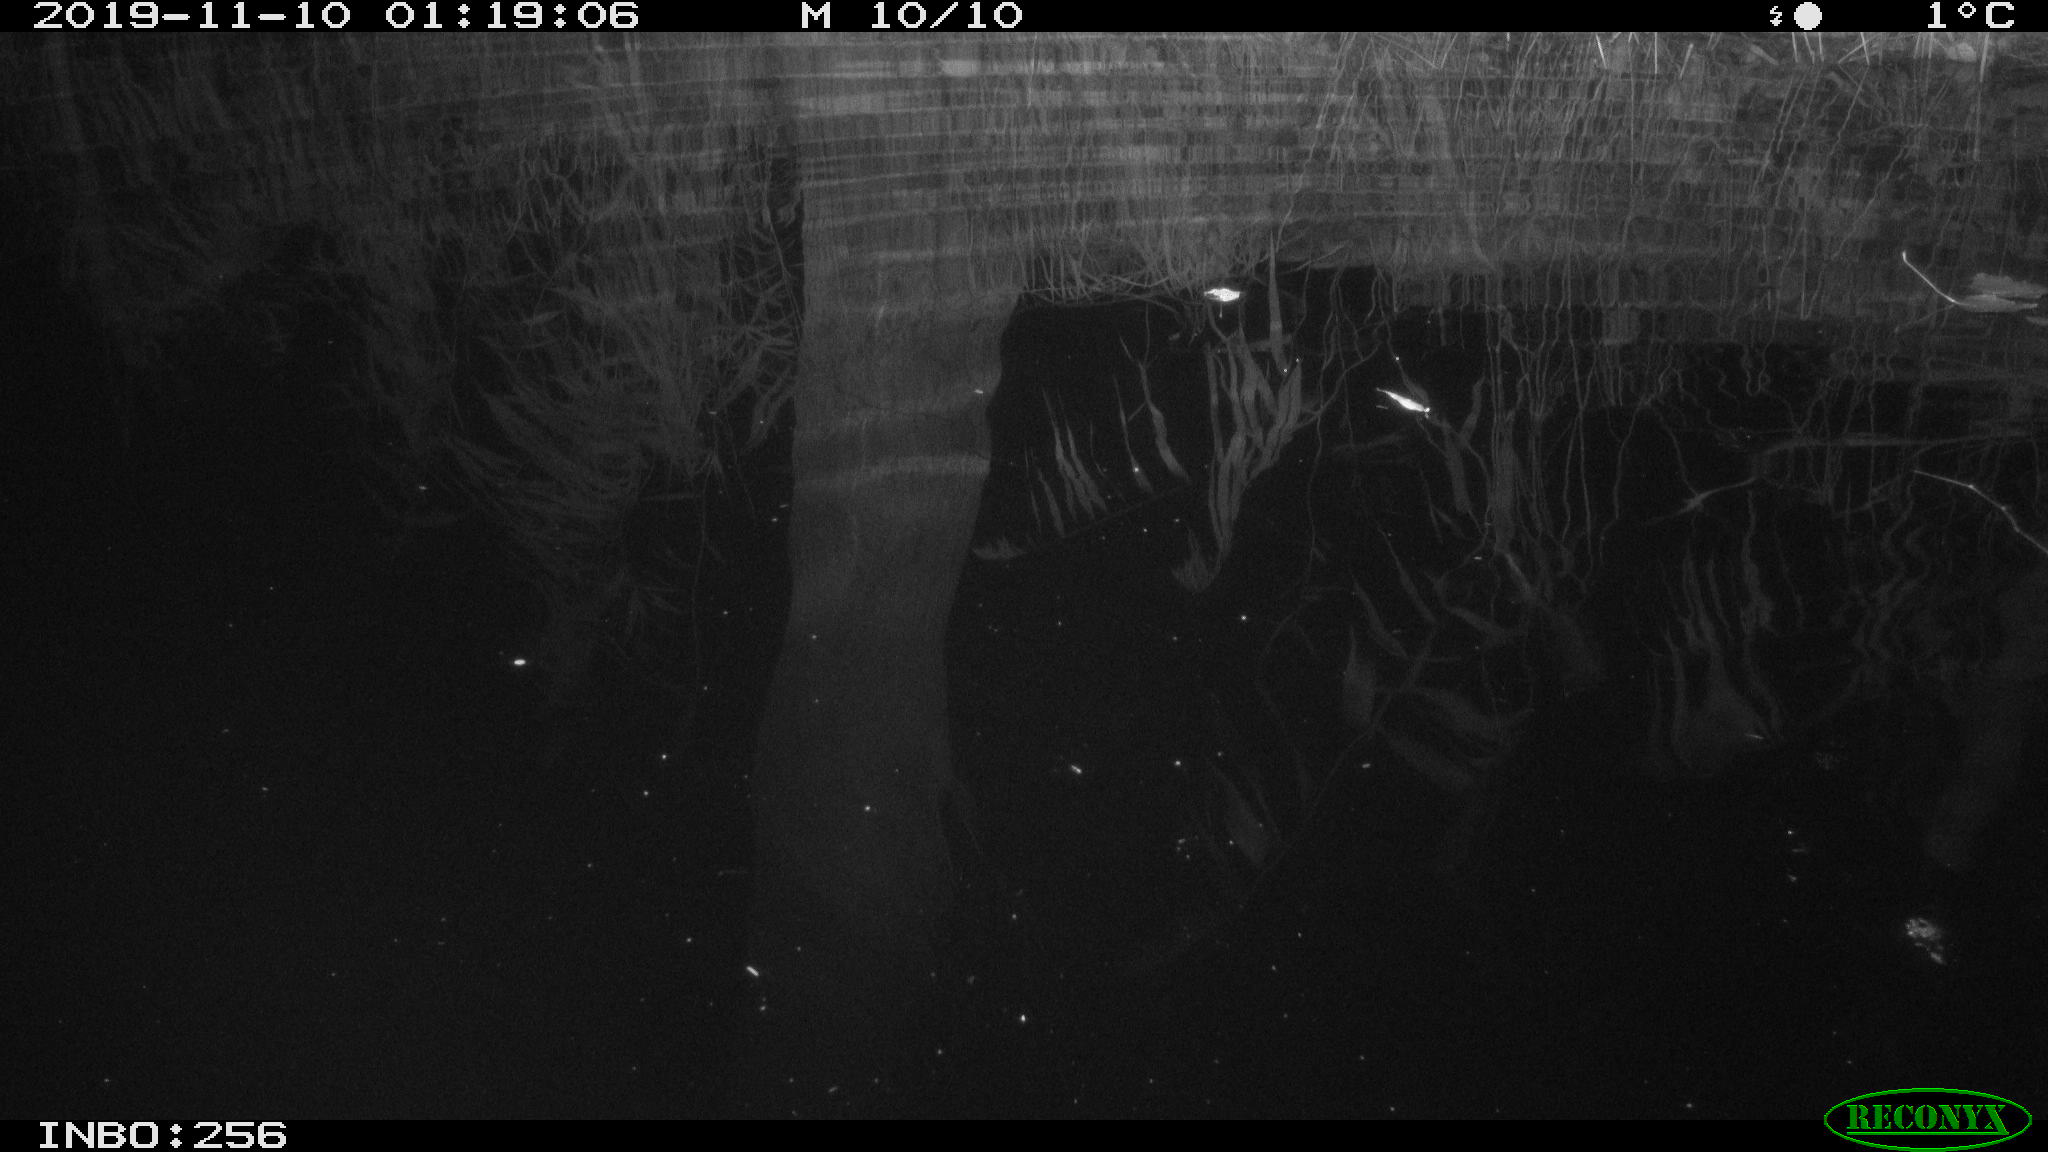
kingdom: Animalia
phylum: Chordata
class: Aves
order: Anseriformes
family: Anatidae
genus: Anas
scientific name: Anas platyrhynchos
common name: Mallard
